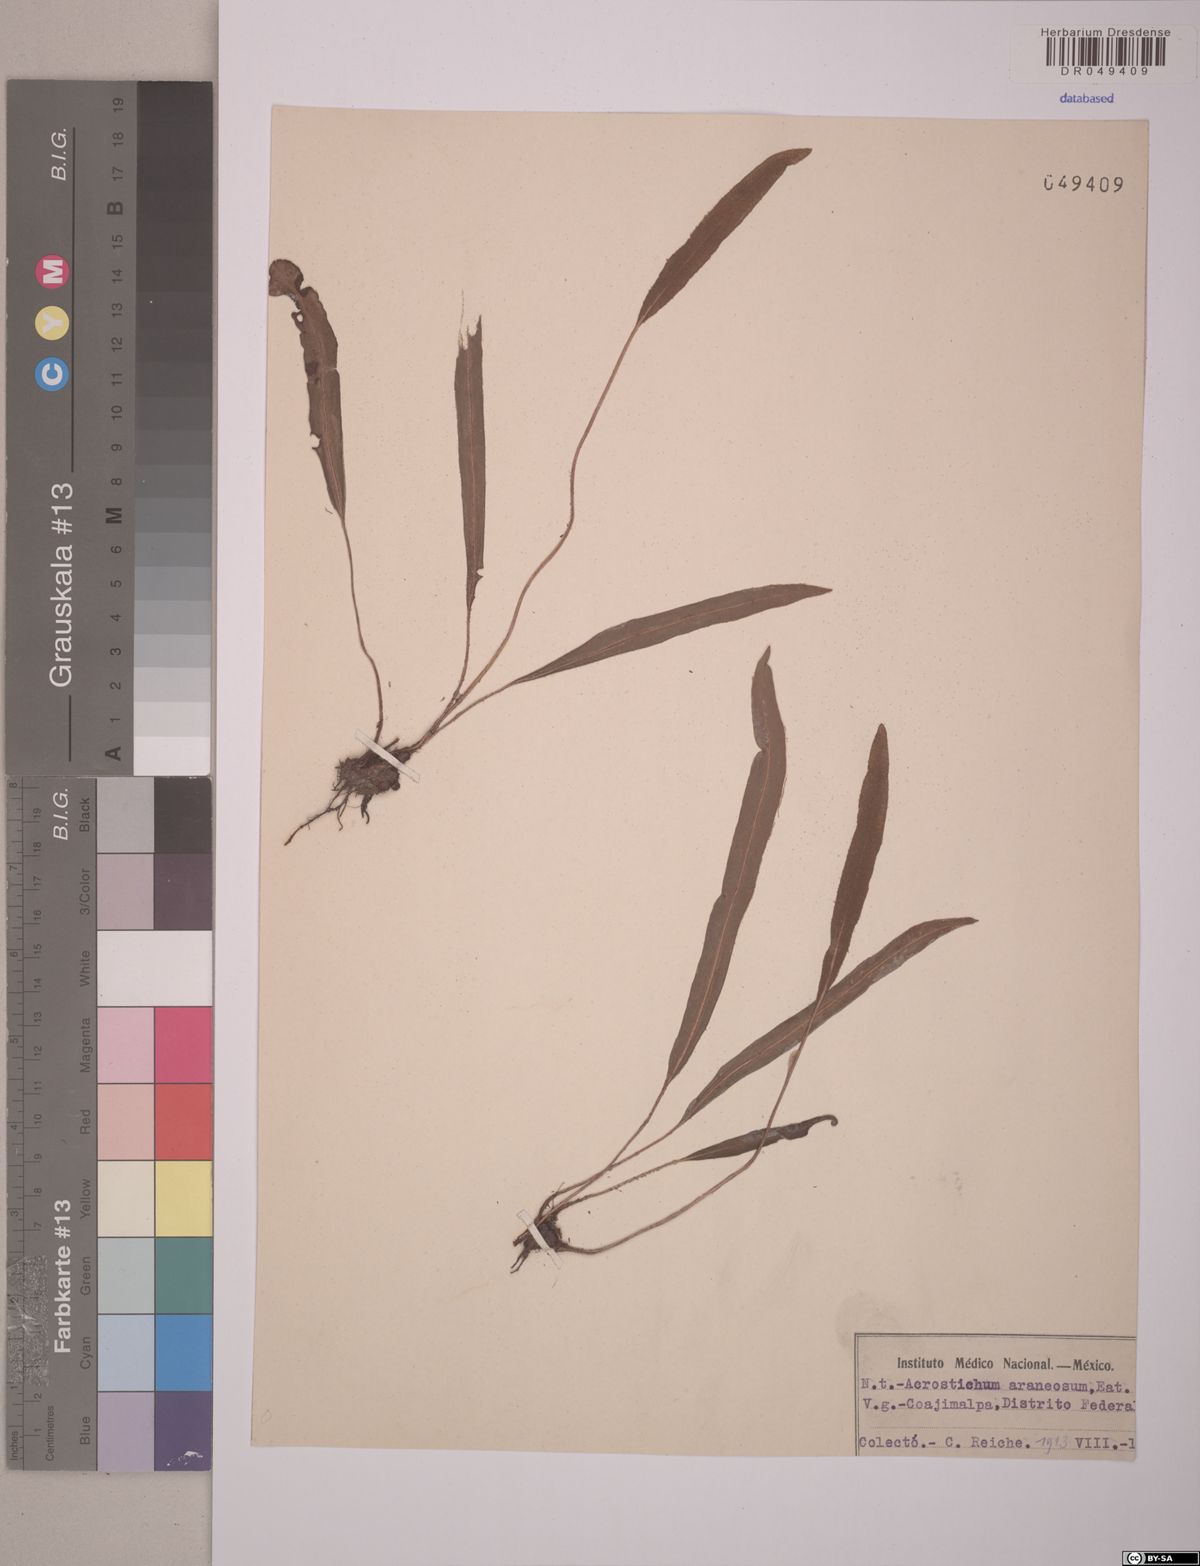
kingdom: Plantae
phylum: Tracheophyta
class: Polypodiopsida
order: Polypodiales
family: Dryopteridaceae
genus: Elaphoglossum
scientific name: Elaphoglossum muelleri
